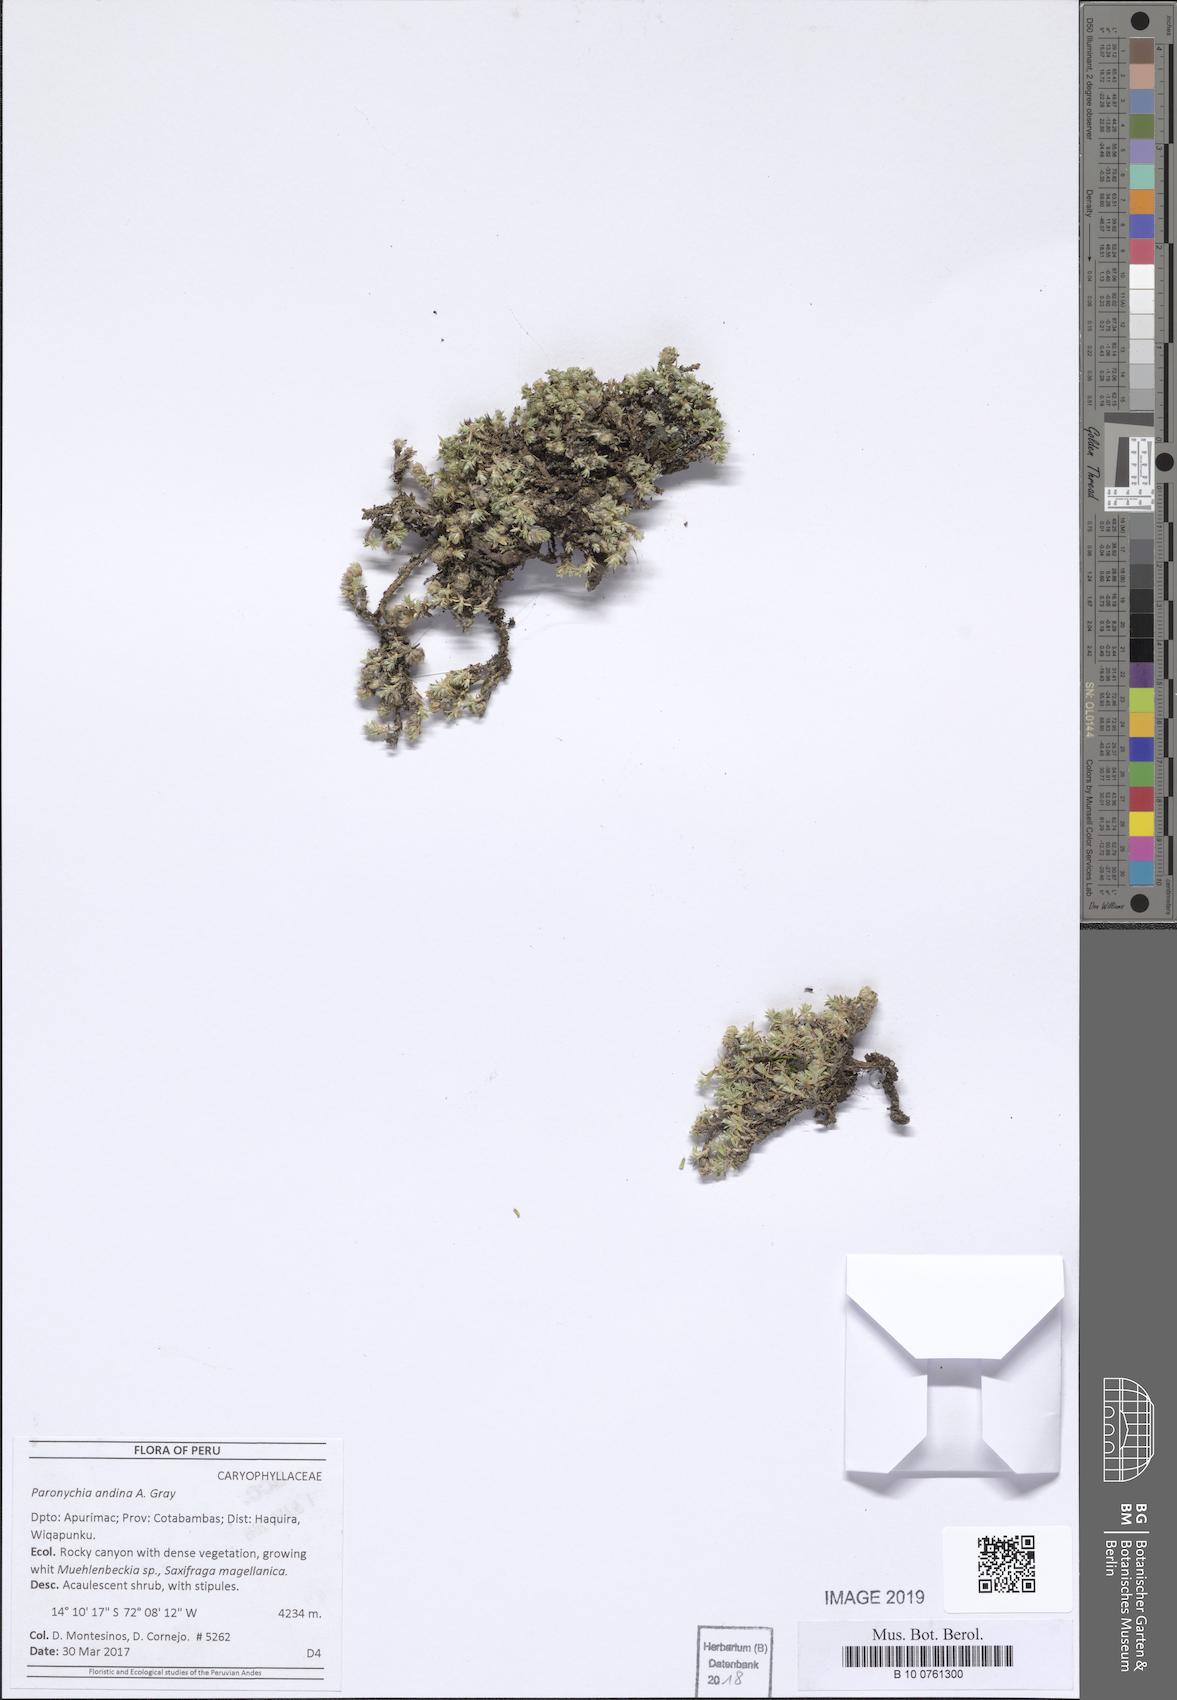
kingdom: Plantae
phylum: Tracheophyta
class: Magnoliopsida
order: Caryophyllales
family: Caryophyllaceae
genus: Paronychia
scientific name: Paronychia
